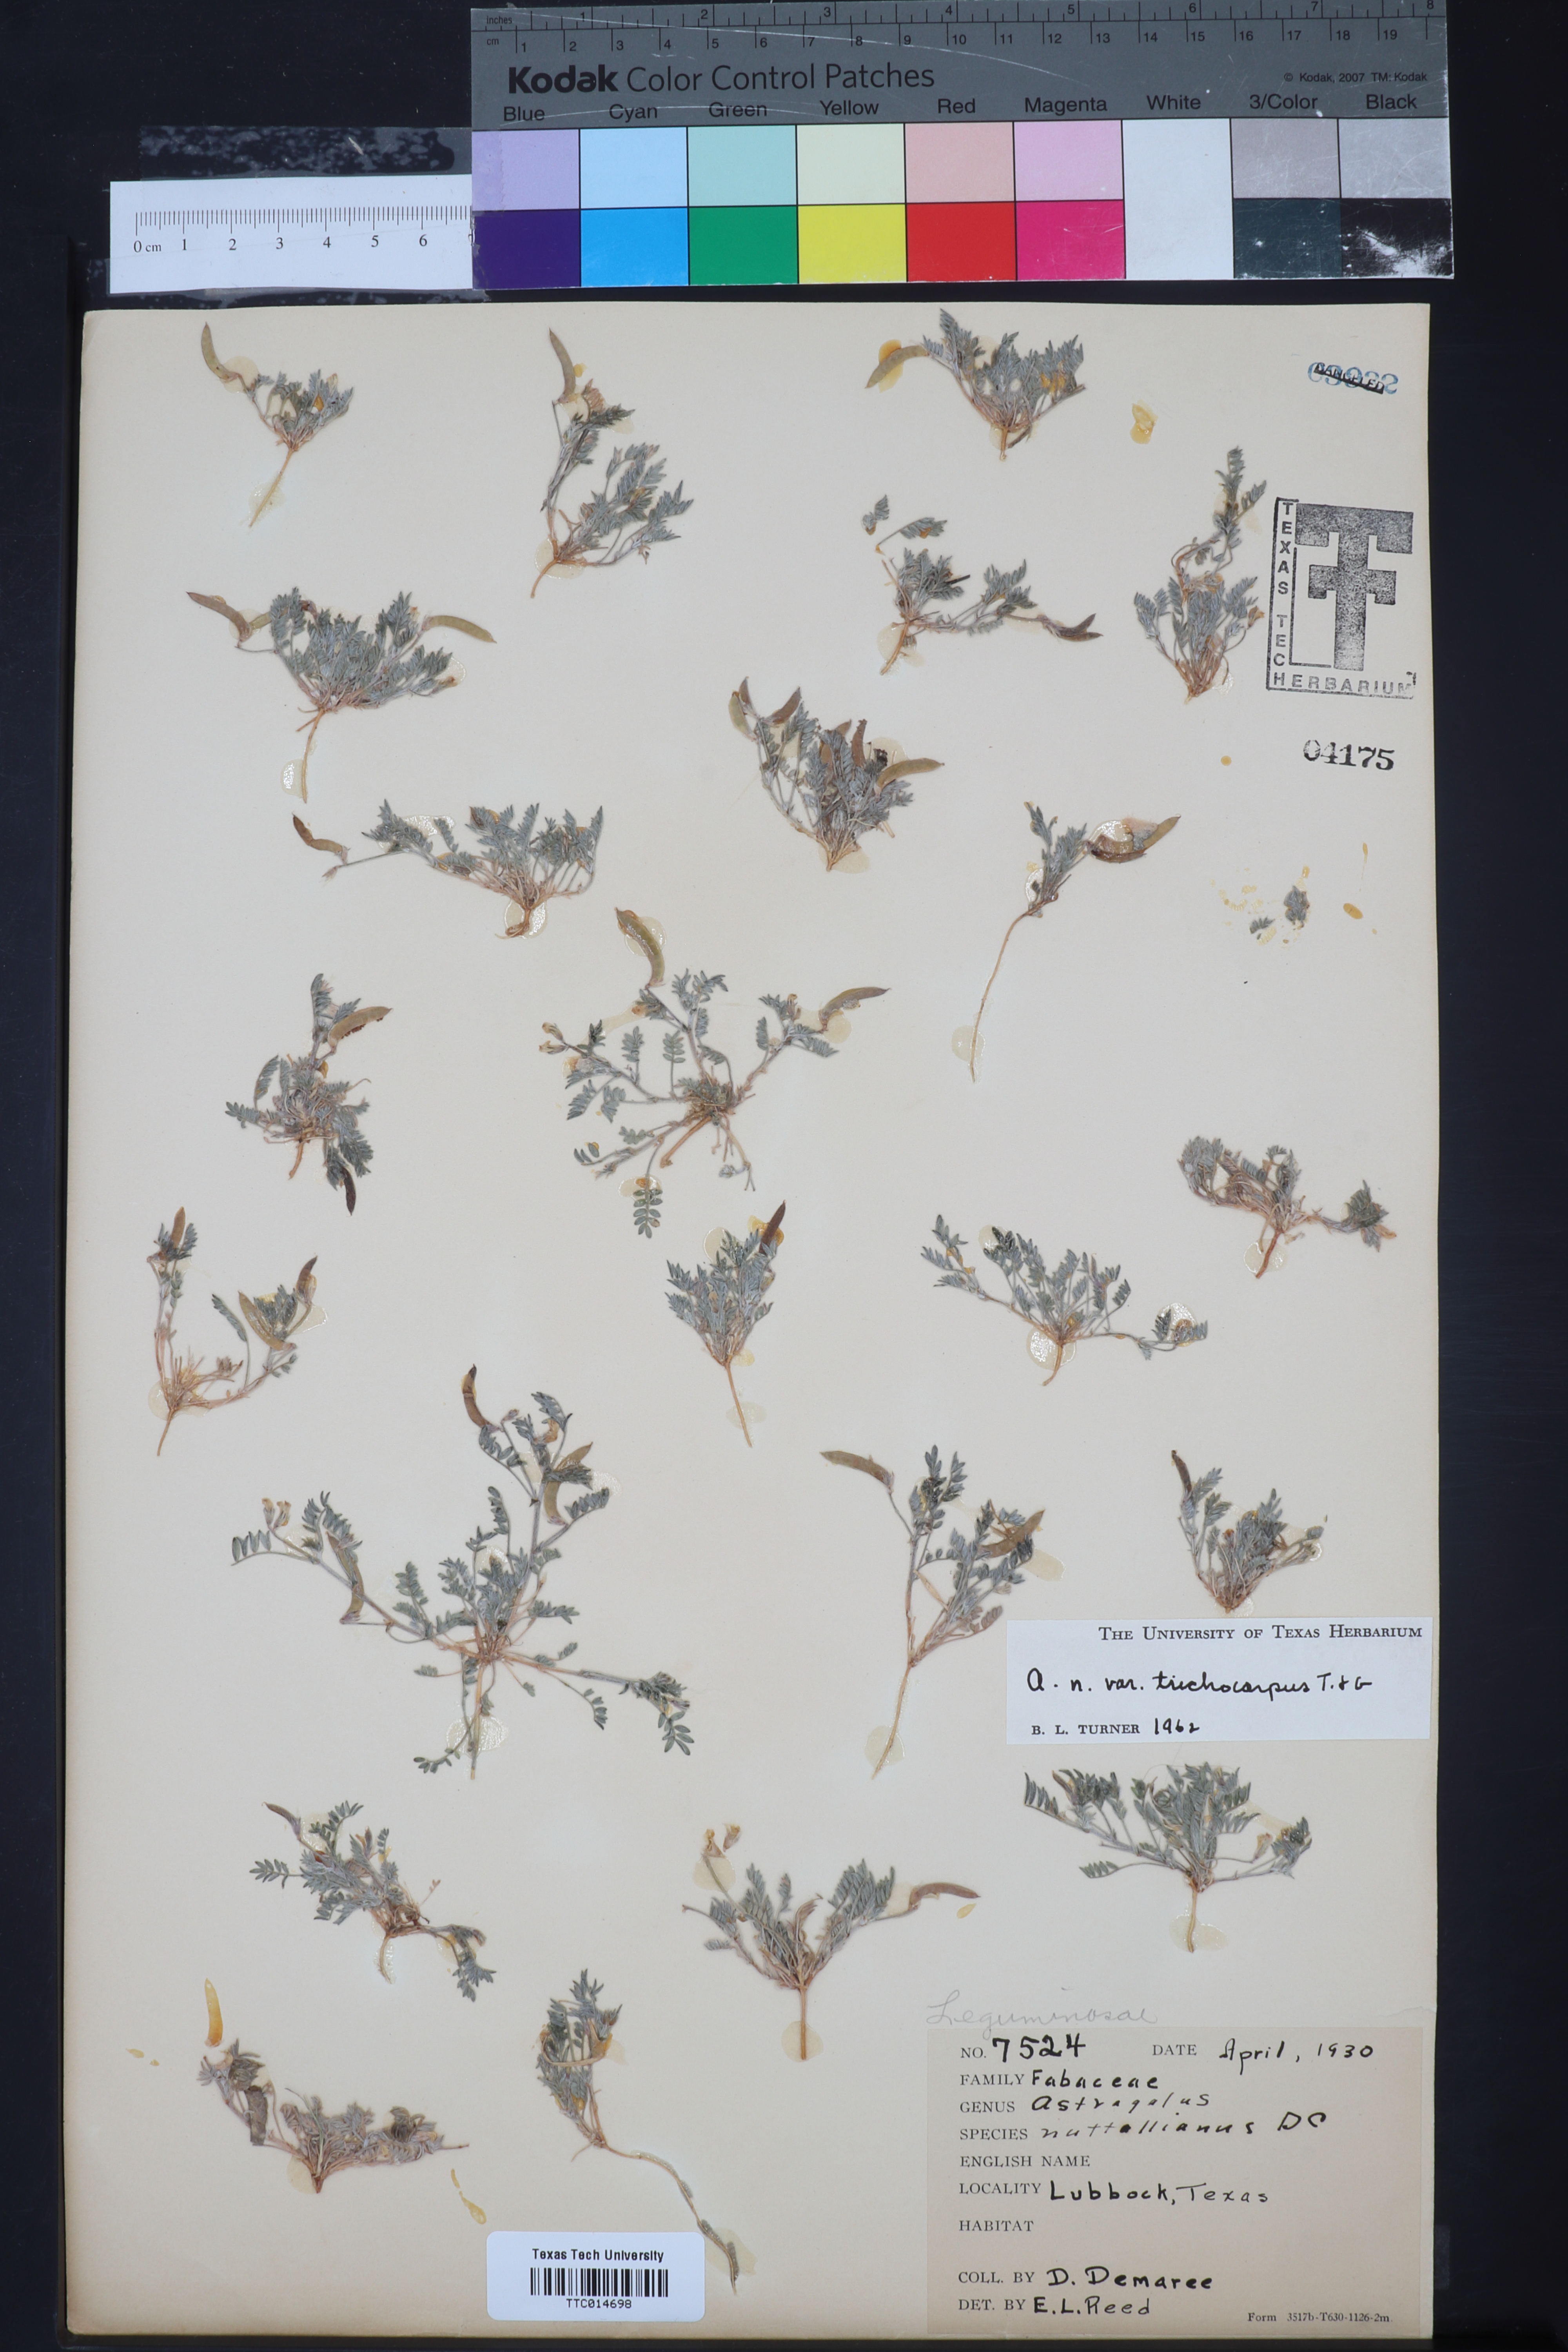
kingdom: Plantae
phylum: Tracheophyta
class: Magnoliopsida
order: Fabales
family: Fabaceae
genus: Astragalus
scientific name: Astragalus nuttallianus
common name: Smallflowered milkvetch
